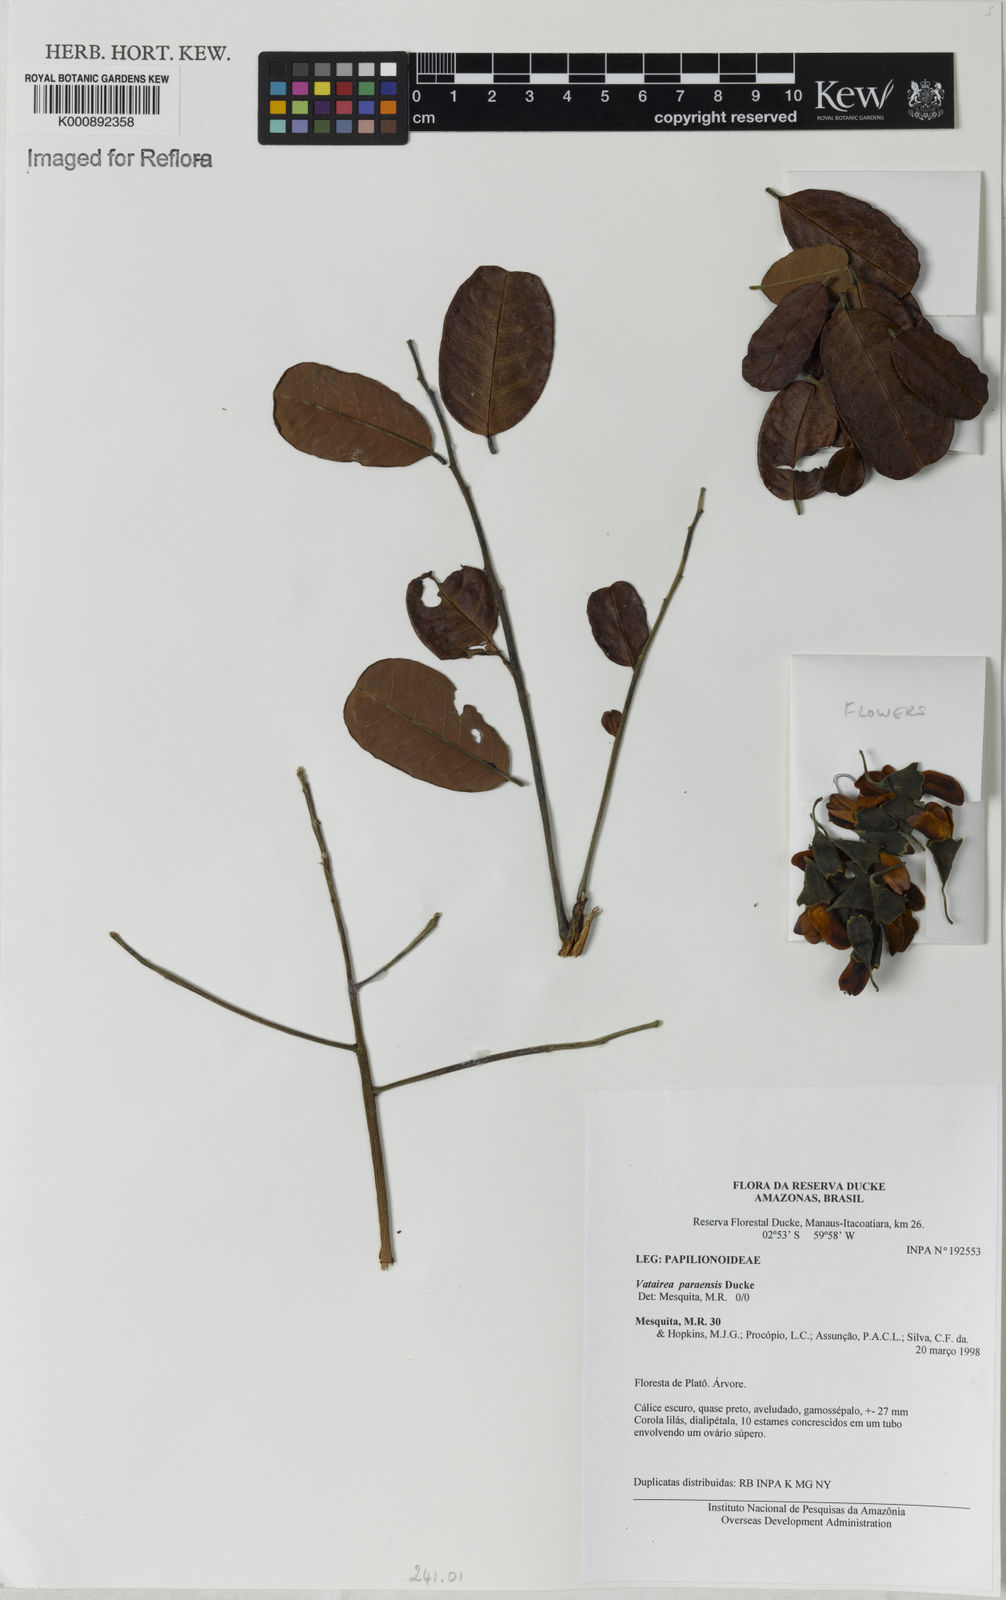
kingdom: Plantae
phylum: Tracheophyta
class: Magnoliopsida
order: Fabales
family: Fabaceae
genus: Vatairea
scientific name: Vatairea paraensis
